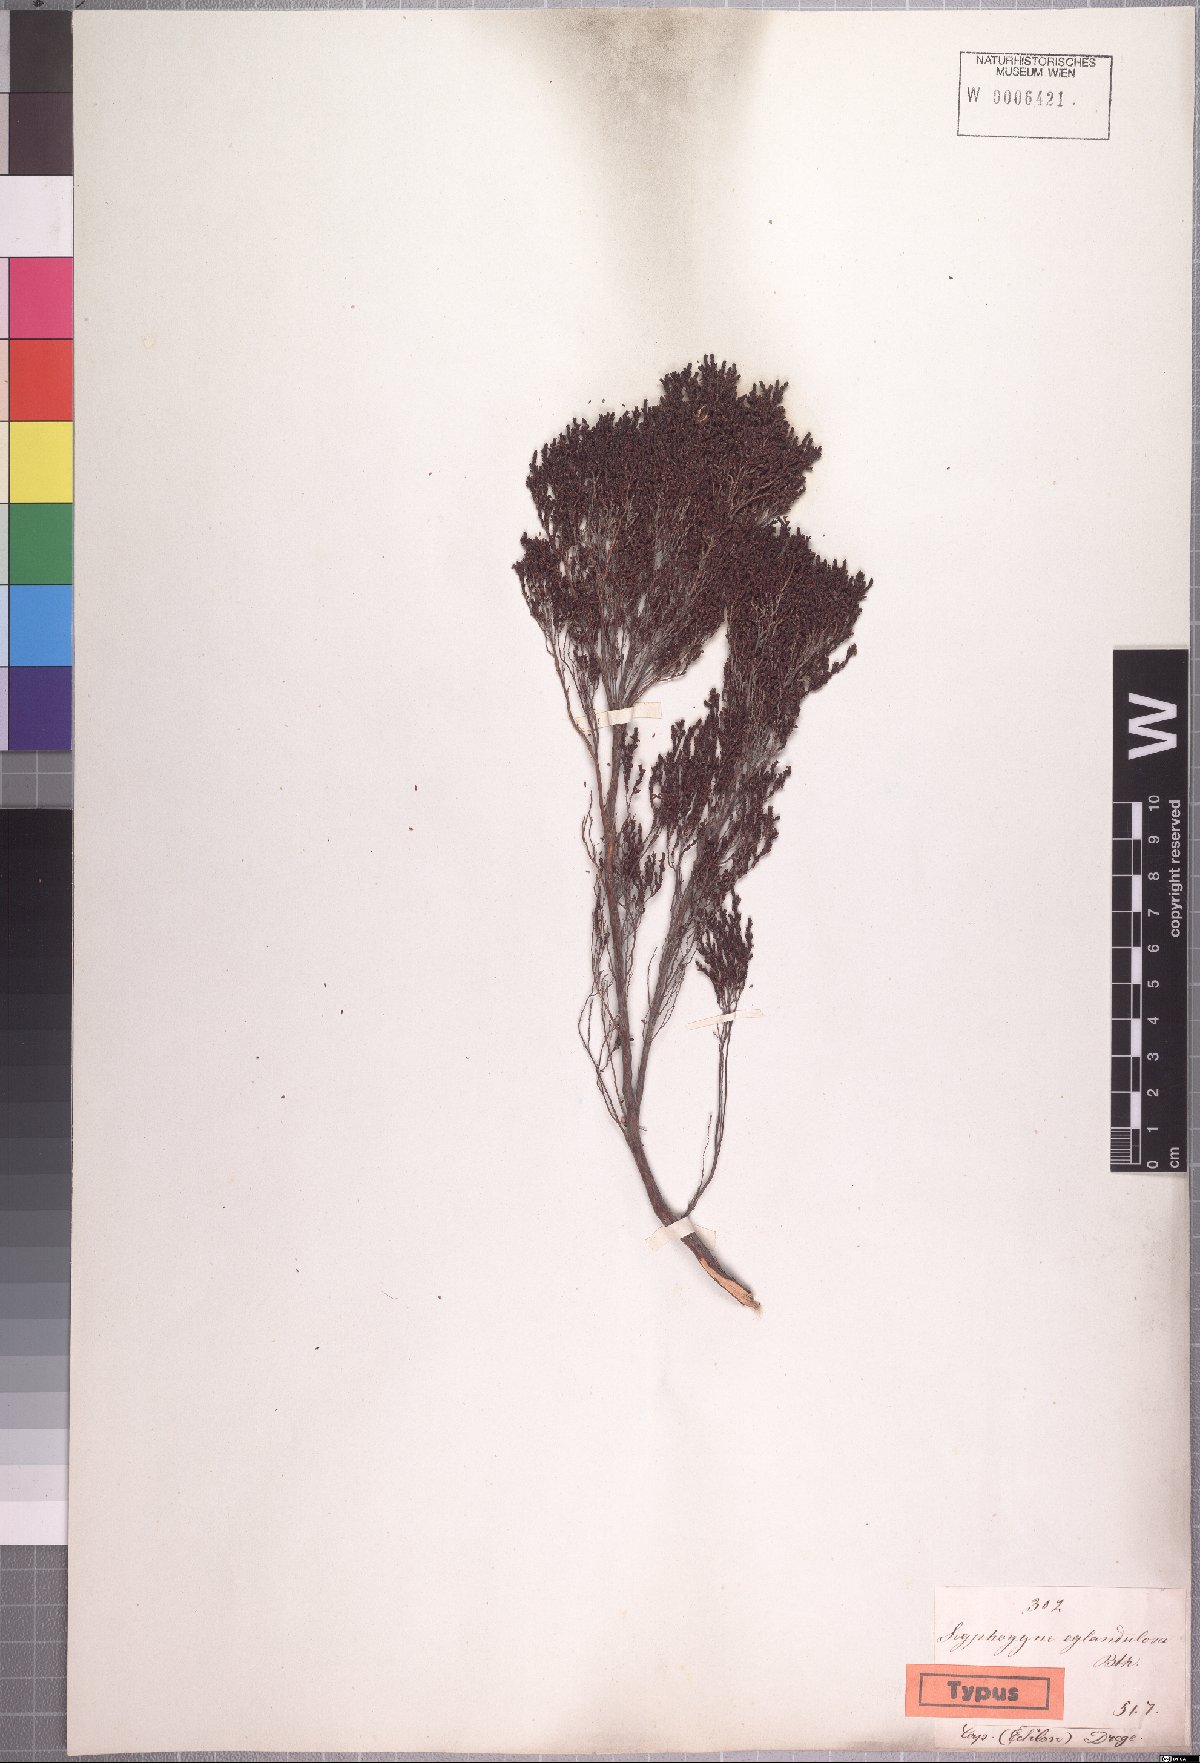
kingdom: Plantae
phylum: Tracheophyta
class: Magnoliopsida
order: Ericales
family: Ericaceae
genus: Erica
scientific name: Erica eglandulosa
